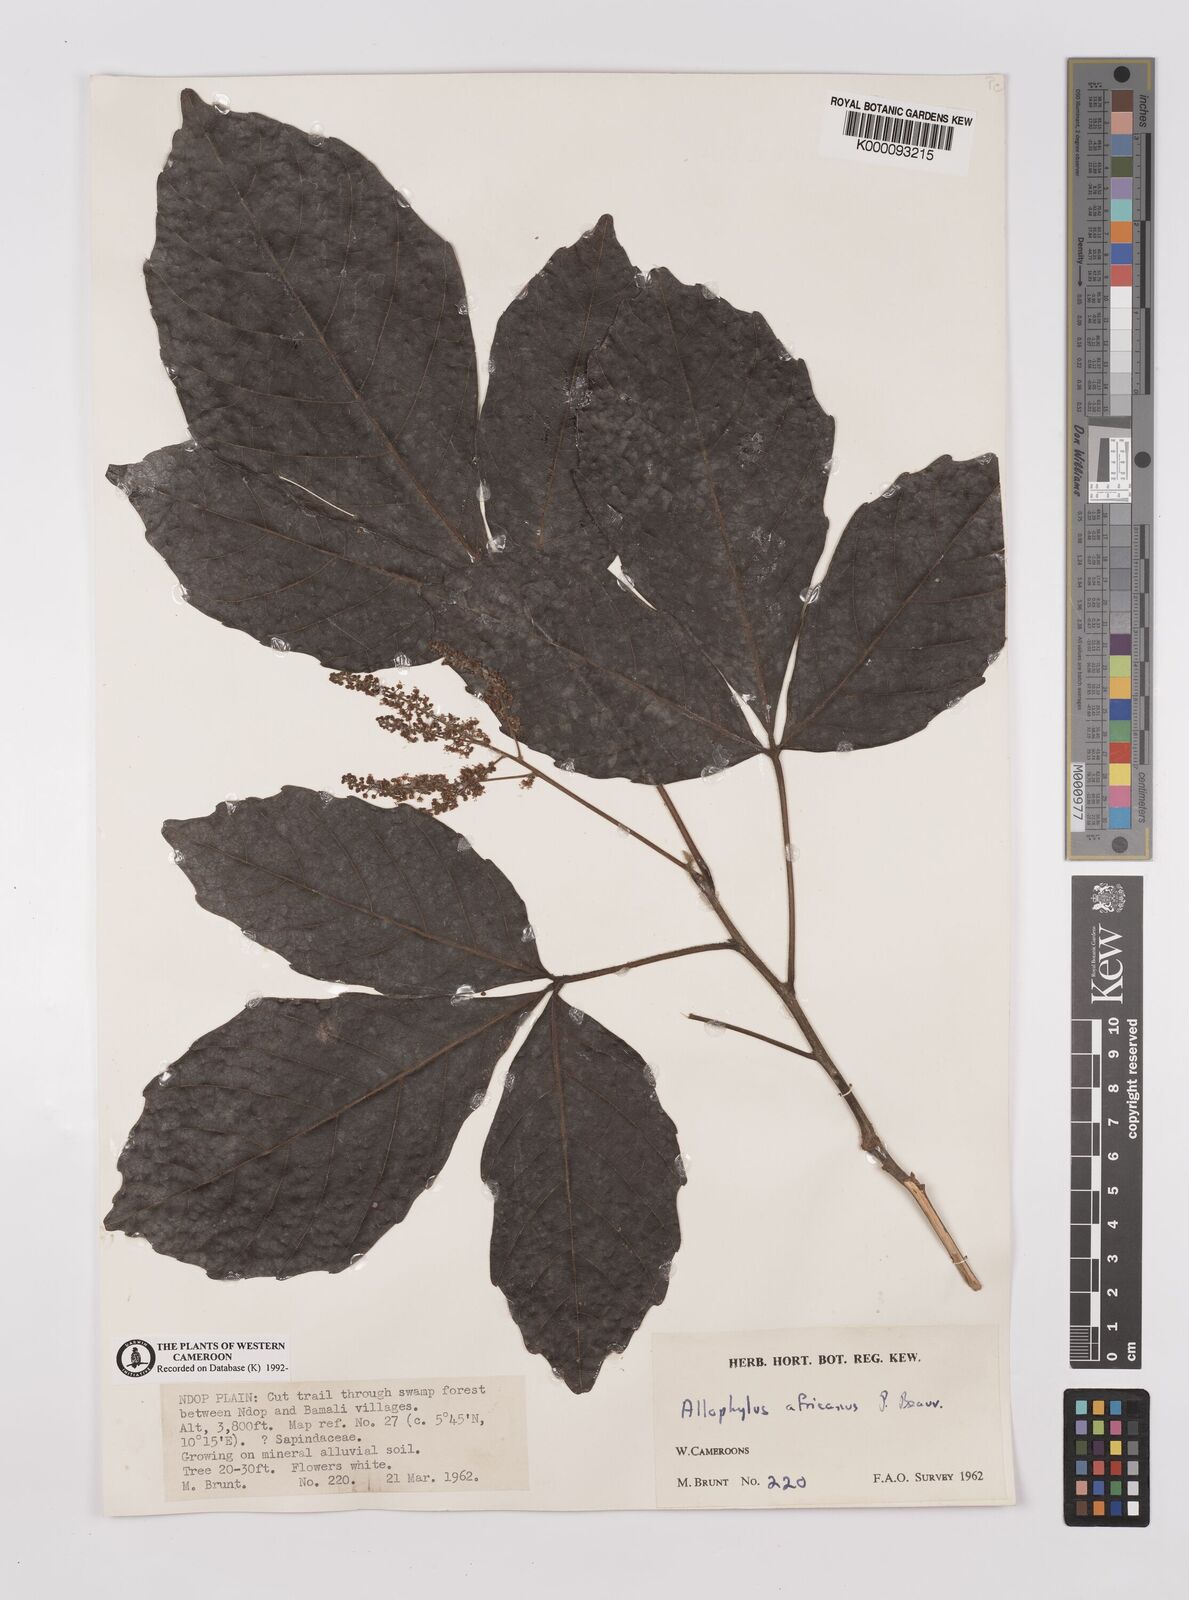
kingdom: Plantae
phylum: Tracheophyta
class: Magnoliopsida
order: Sapindales
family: Sapindaceae
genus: Allophylus
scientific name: Allophylus africanus
